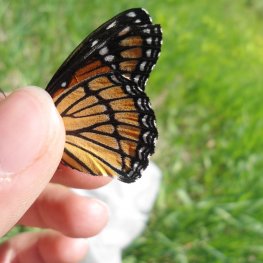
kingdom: Animalia
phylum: Arthropoda
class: Insecta
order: Lepidoptera
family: Nymphalidae
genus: Limenitis
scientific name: Limenitis archippus
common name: Viceroy
